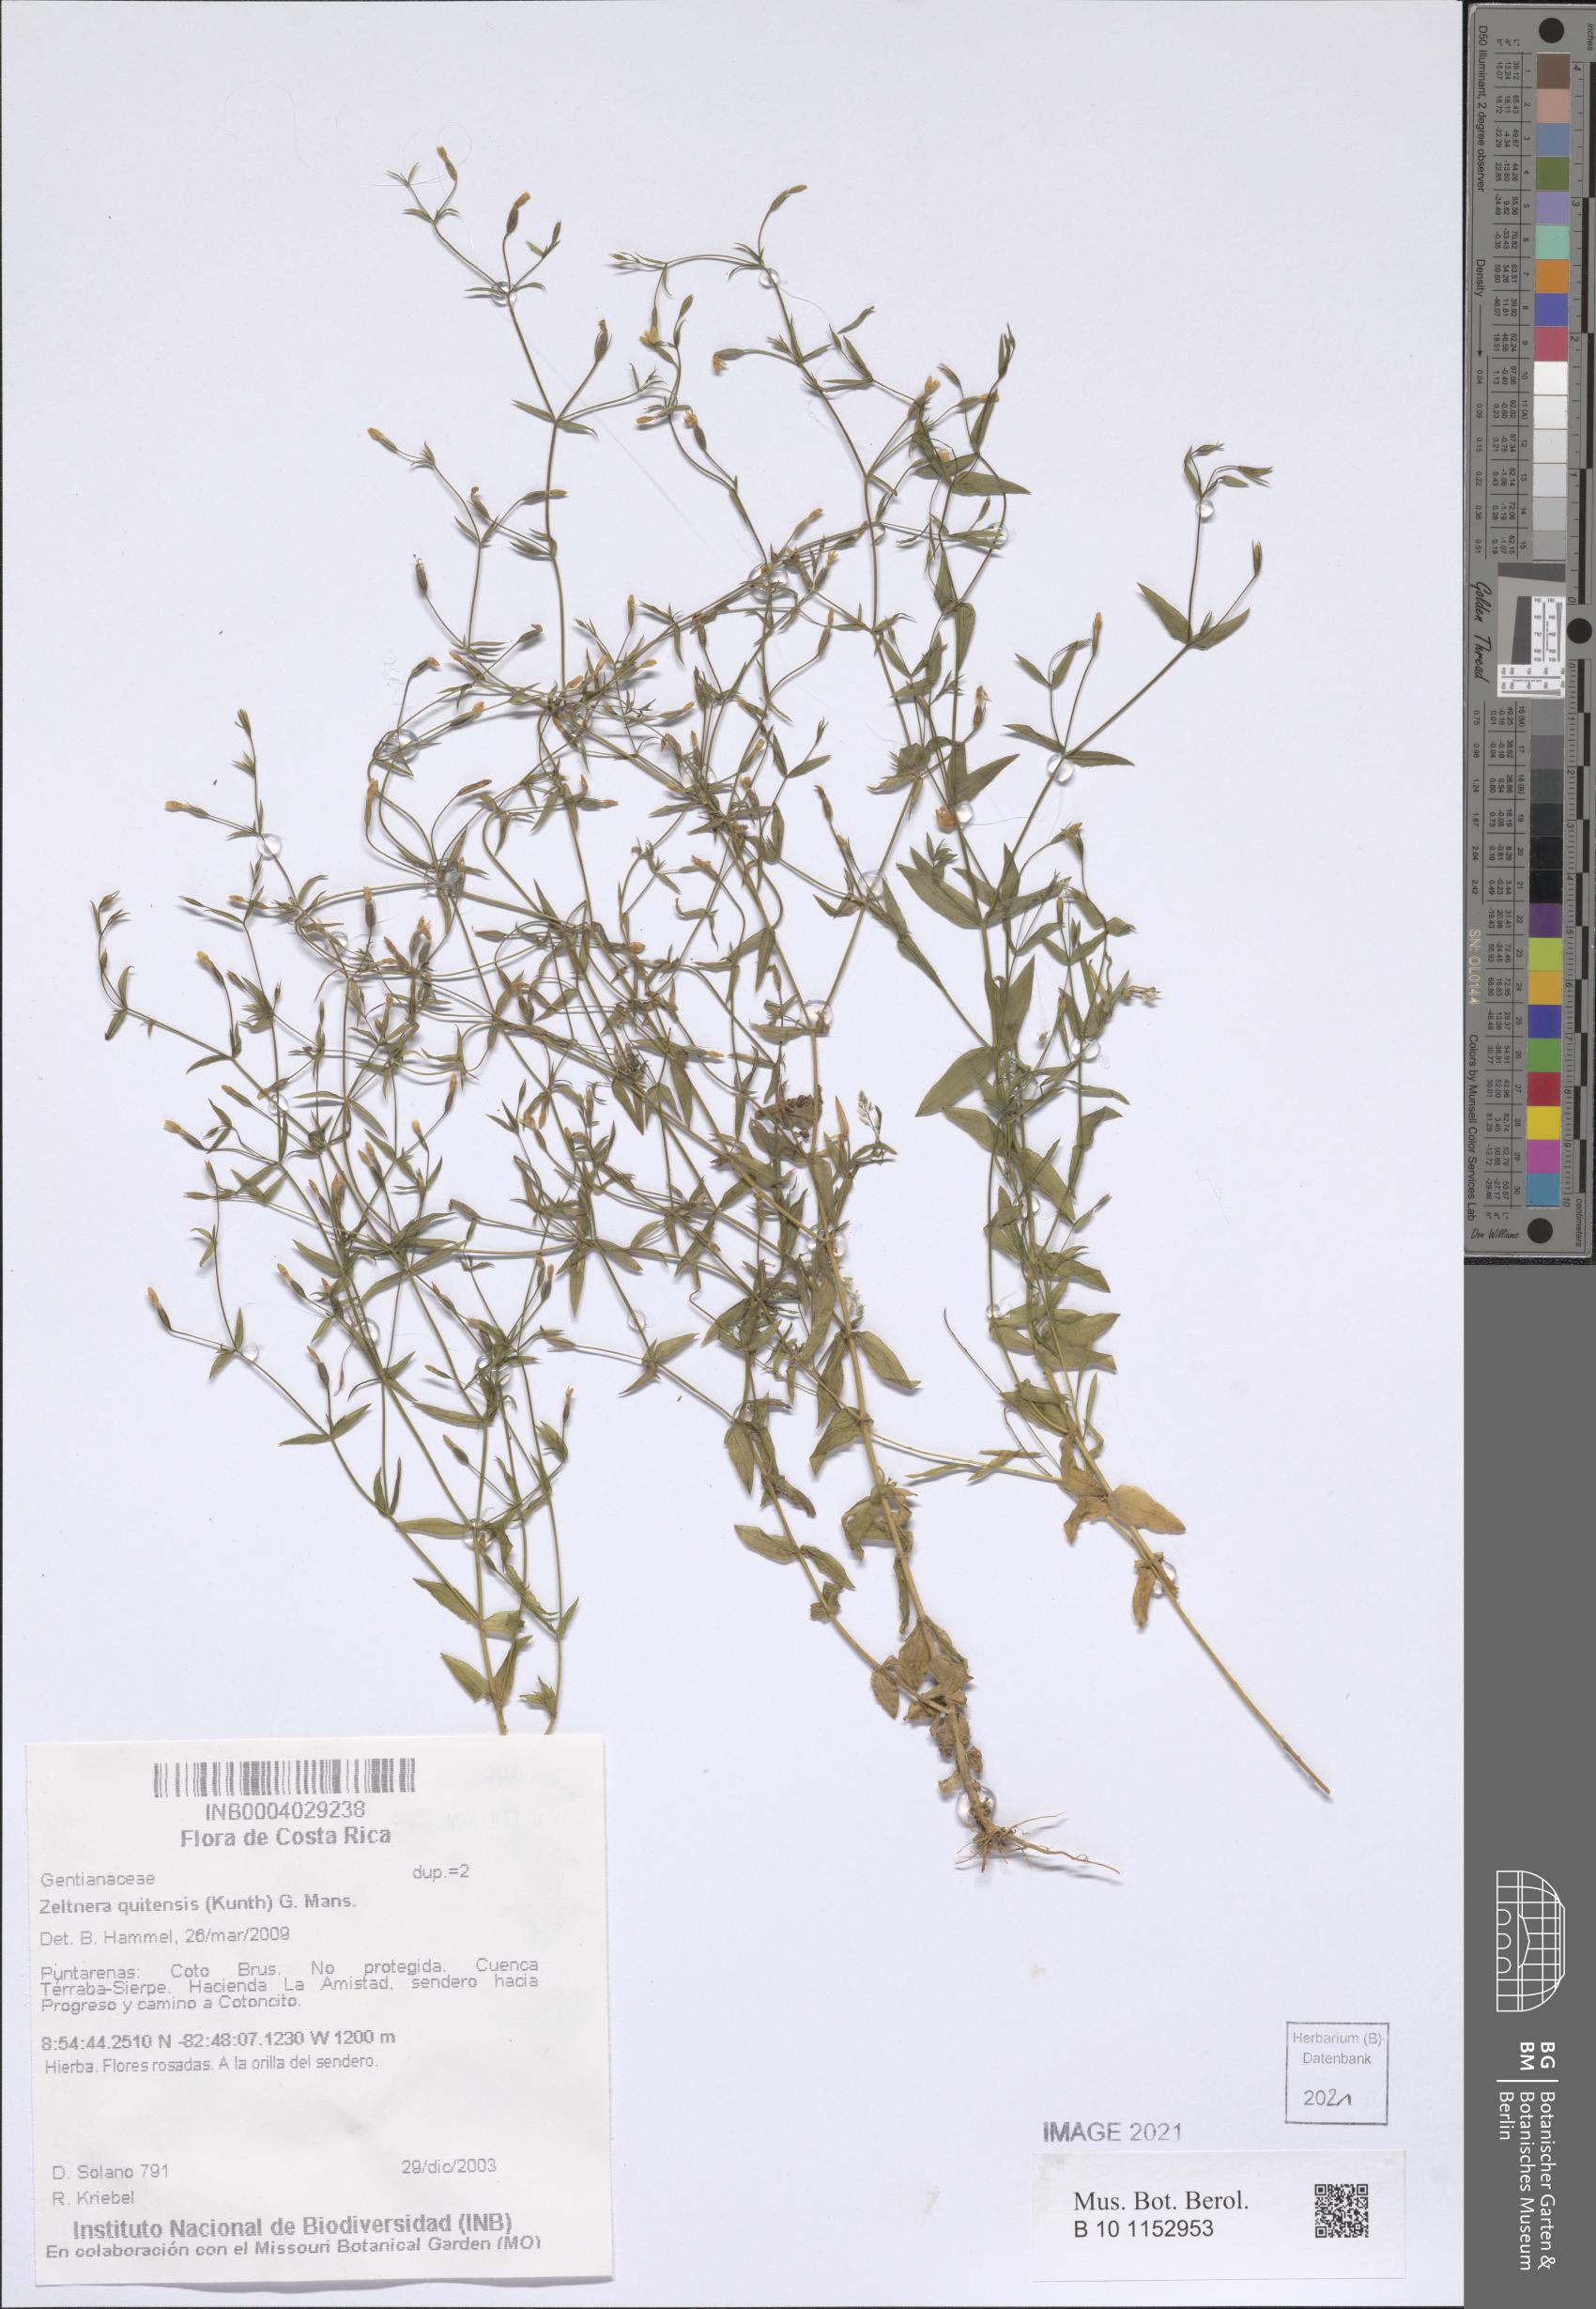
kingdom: Plantae
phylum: Tracheophyta
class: Magnoliopsida
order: Gentianales
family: Gentianaceae
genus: Zeltnera
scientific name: Zeltnera quitensis
